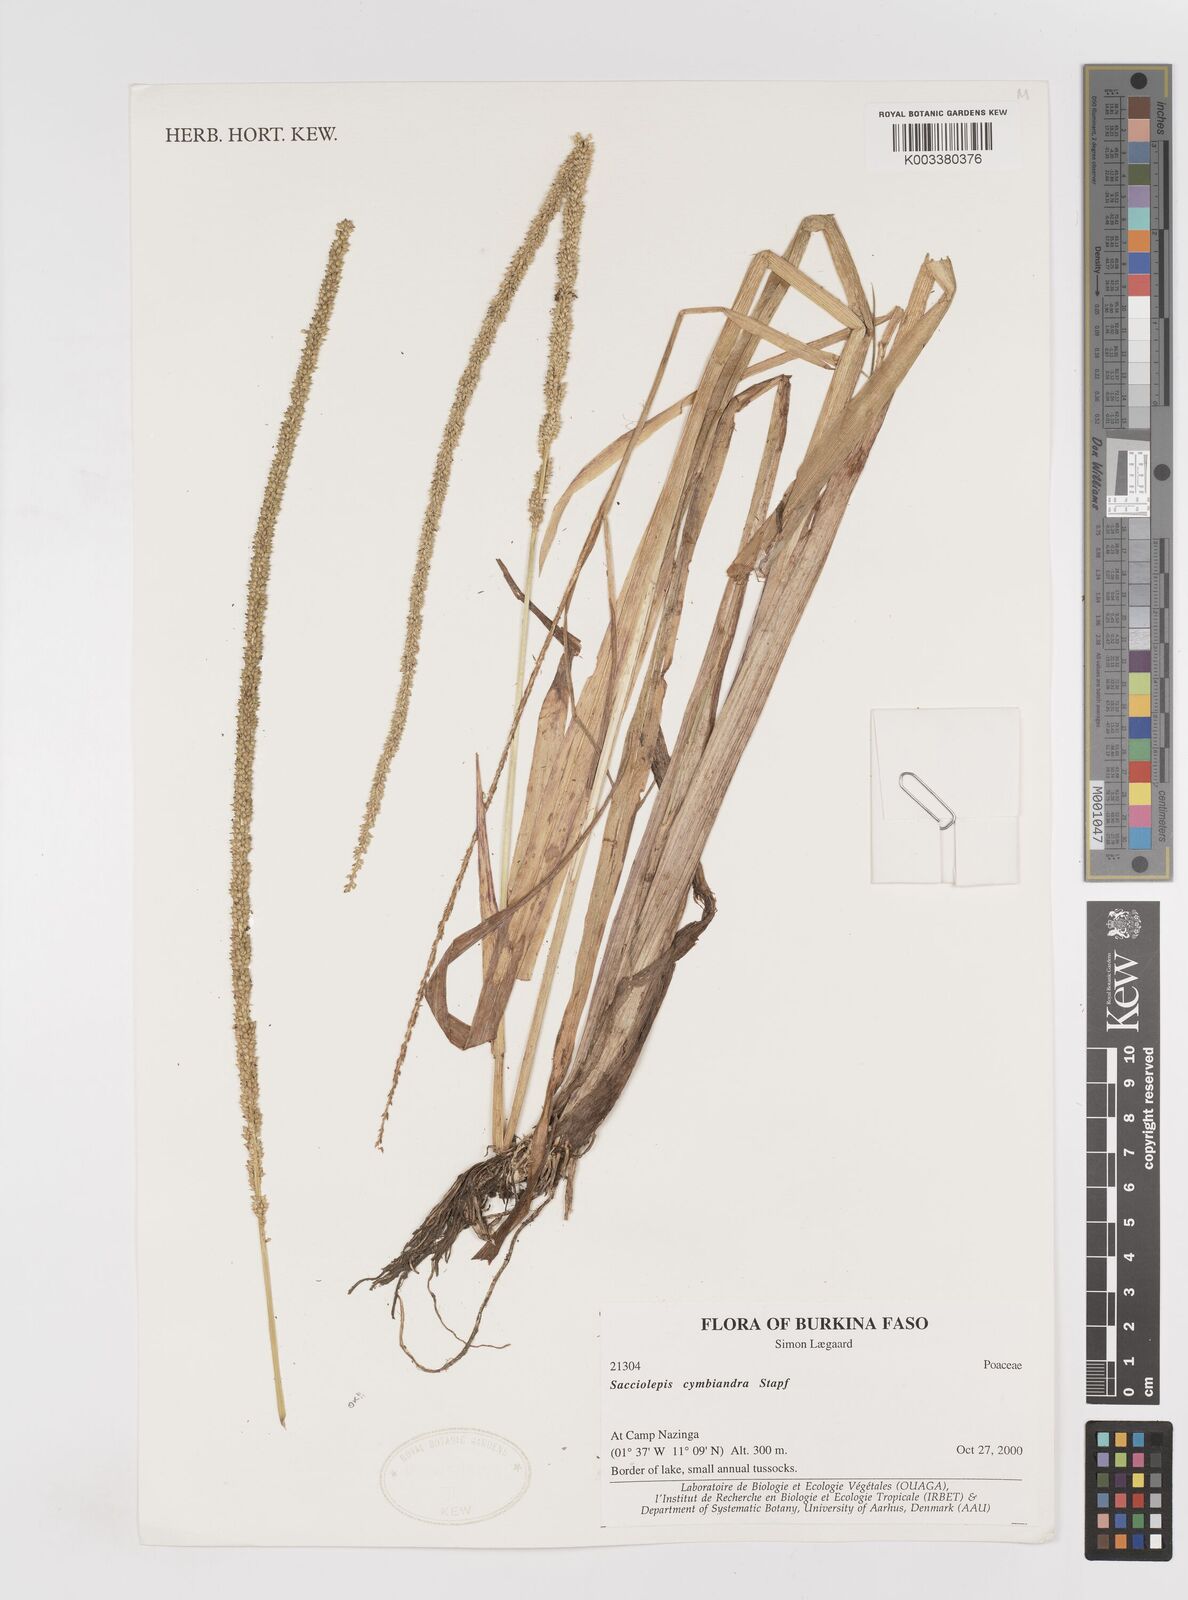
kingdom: Plantae
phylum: Tracheophyta
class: Liliopsida
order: Poales
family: Poaceae
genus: Sacciolepis
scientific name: Sacciolepis cymbiandra
